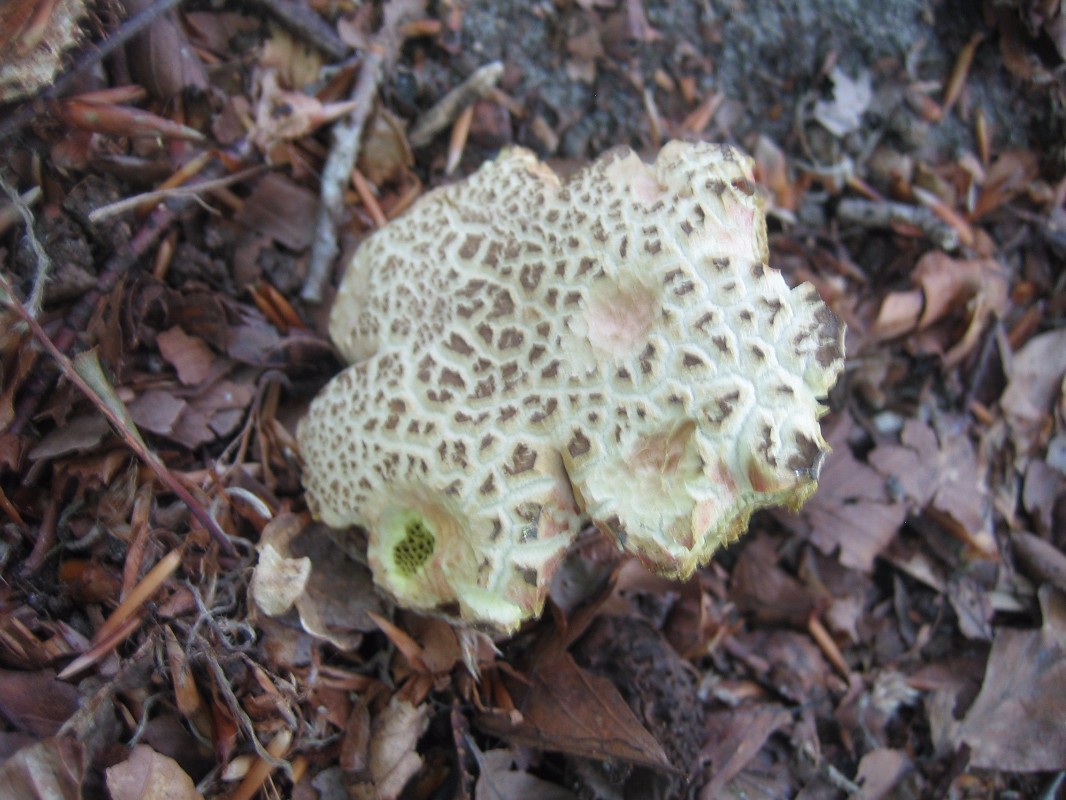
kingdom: Fungi
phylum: Basidiomycota
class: Agaricomycetes
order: Boletales
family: Boletaceae
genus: Xerocomellus
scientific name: Xerocomellus chrysenteron
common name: rødsprukken rørhat
